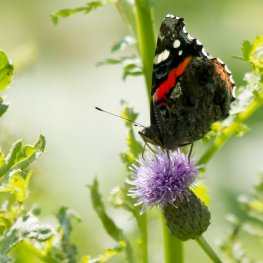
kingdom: Animalia
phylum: Arthropoda
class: Insecta
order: Lepidoptera
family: Nymphalidae
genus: Vanessa
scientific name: Vanessa atalanta
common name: Red Admiral
